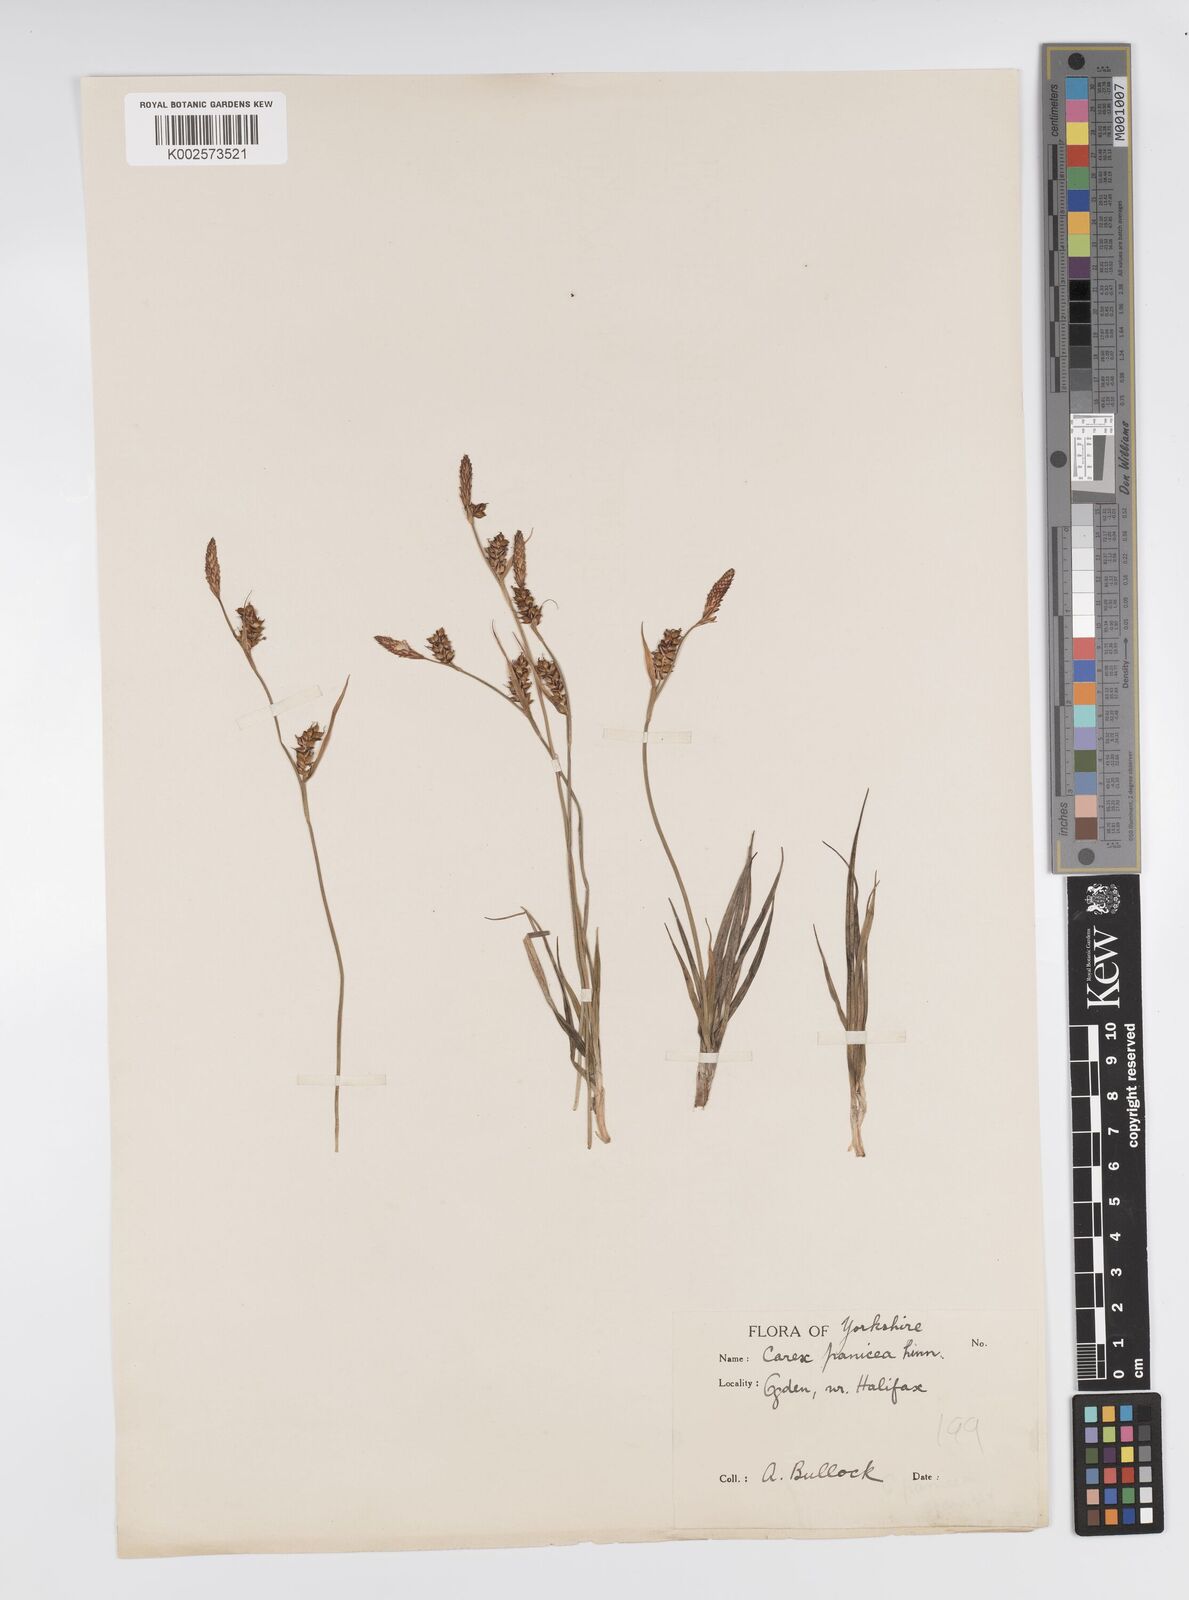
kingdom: Plantae
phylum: Tracheophyta
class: Liliopsida
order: Poales
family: Cyperaceae
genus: Carex
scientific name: Carex panicea
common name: Carnation sedge
